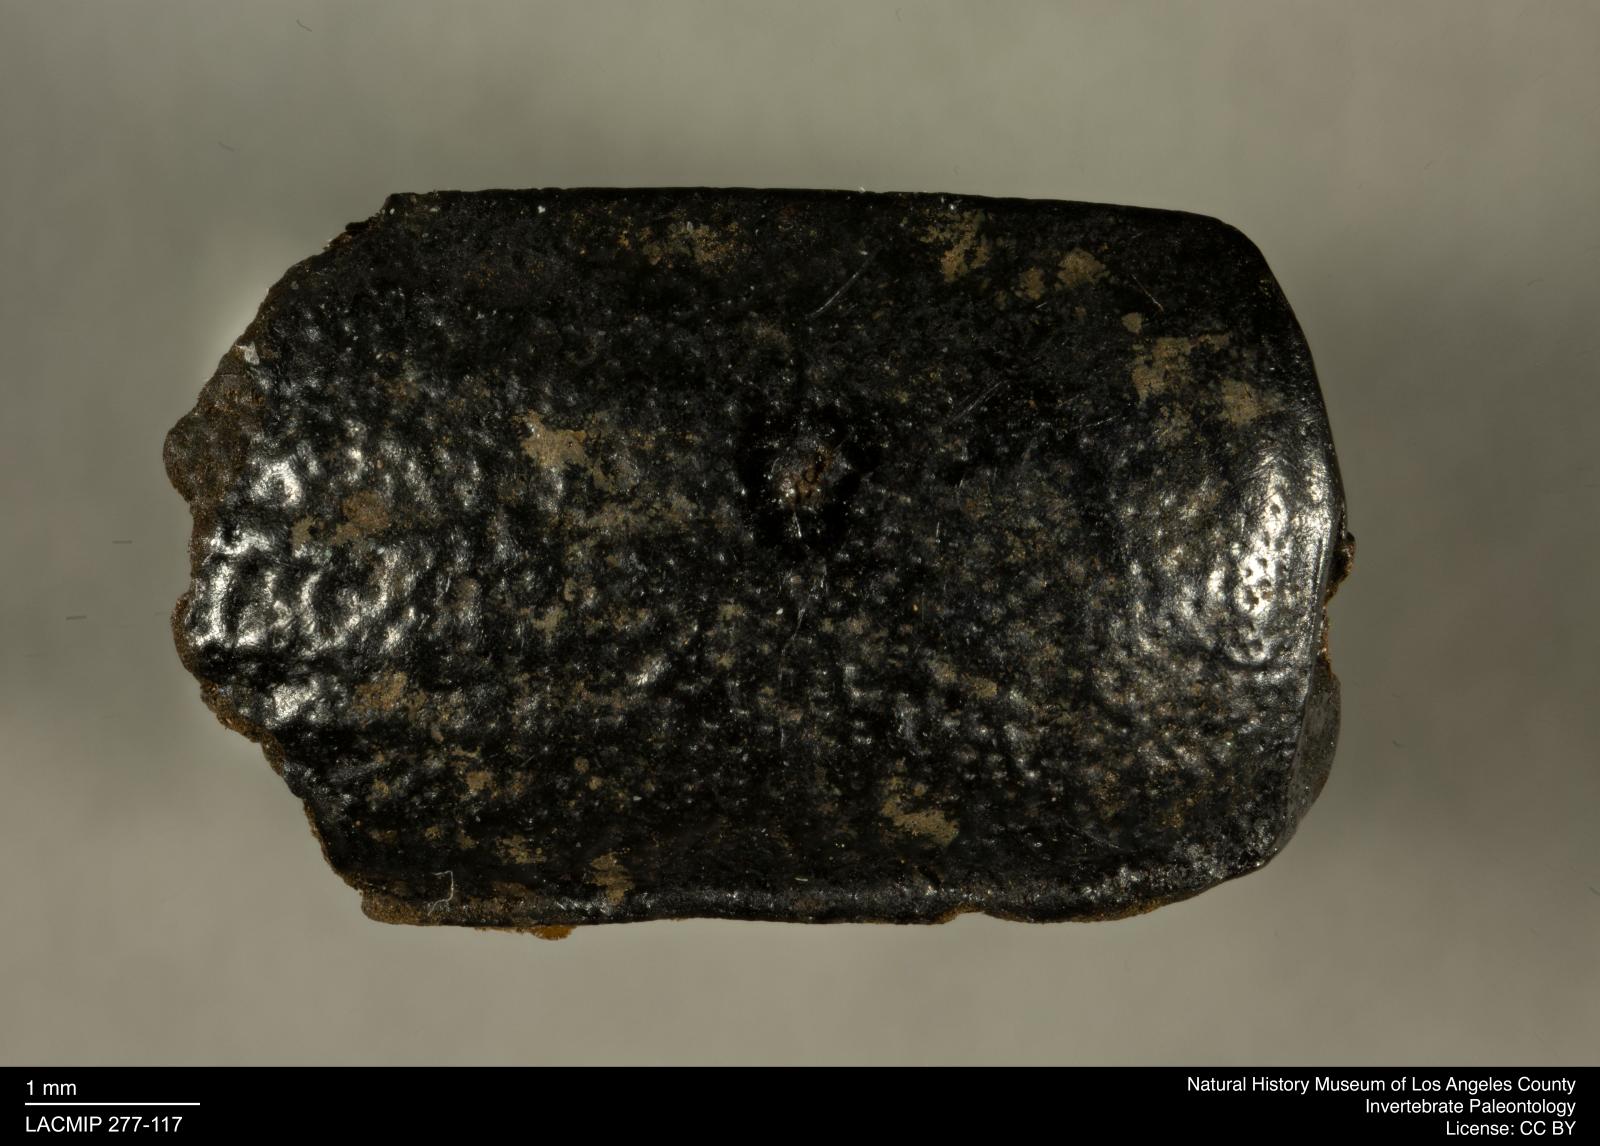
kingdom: Animalia
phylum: Arthropoda
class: Insecta
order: Coleoptera
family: Tenebrionidae
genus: Coniontis
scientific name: Coniontis abdominalis
